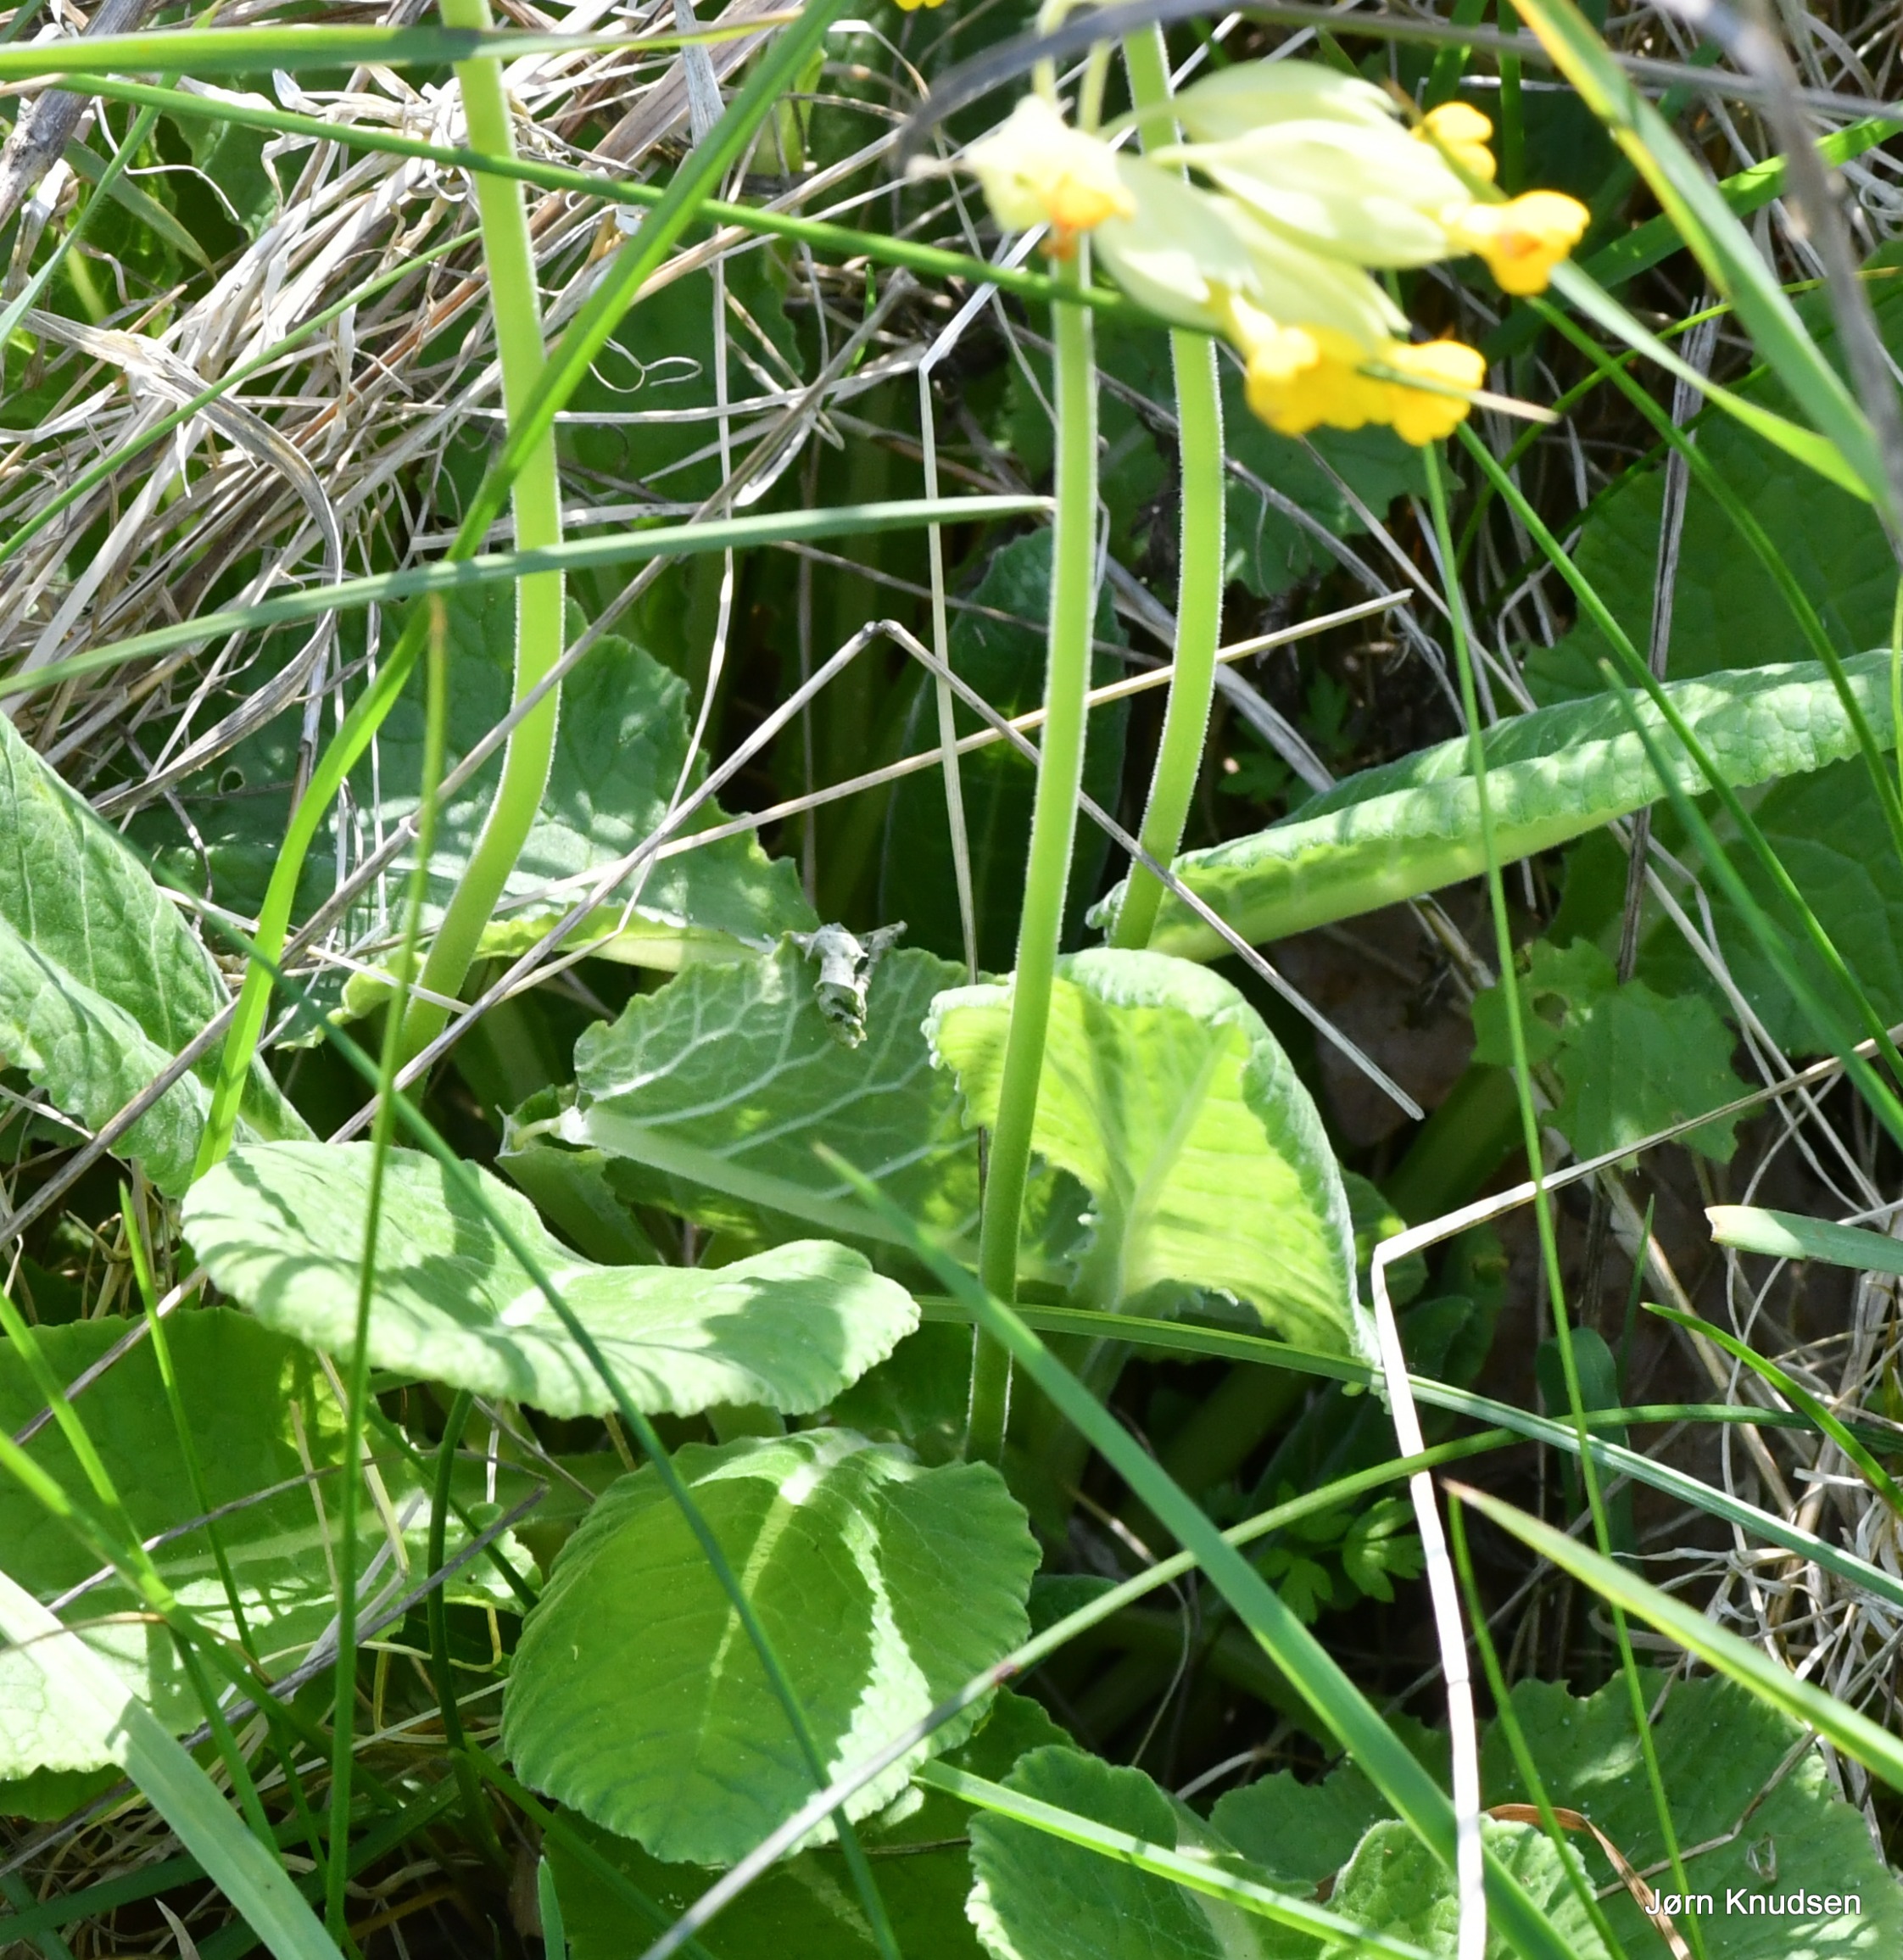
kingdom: Plantae
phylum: Tracheophyta
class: Magnoliopsida
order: Ericales
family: Primulaceae
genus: Primula
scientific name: Primula veris
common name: Hulkravet kodriver
